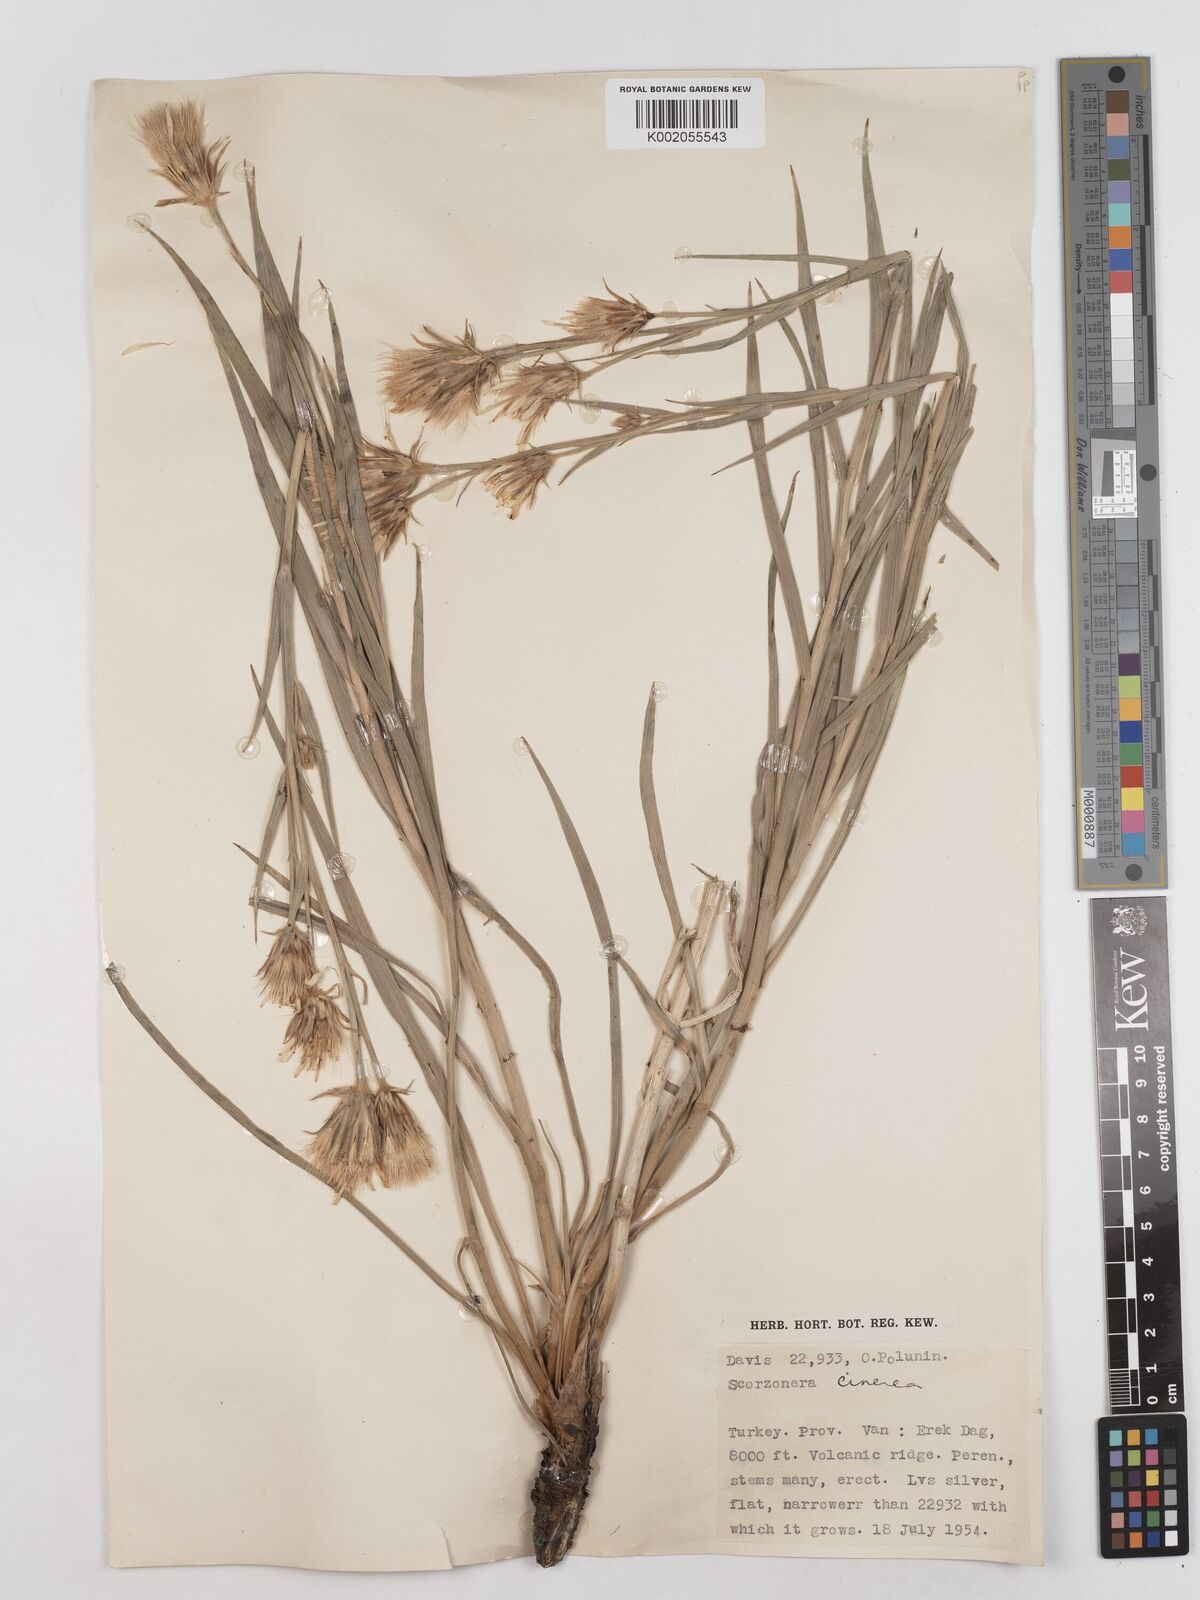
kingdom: Plantae
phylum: Tracheophyta
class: Magnoliopsida
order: Asterales
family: Asteraceae
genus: Cigdemia
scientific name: Cigdemia cinerea
